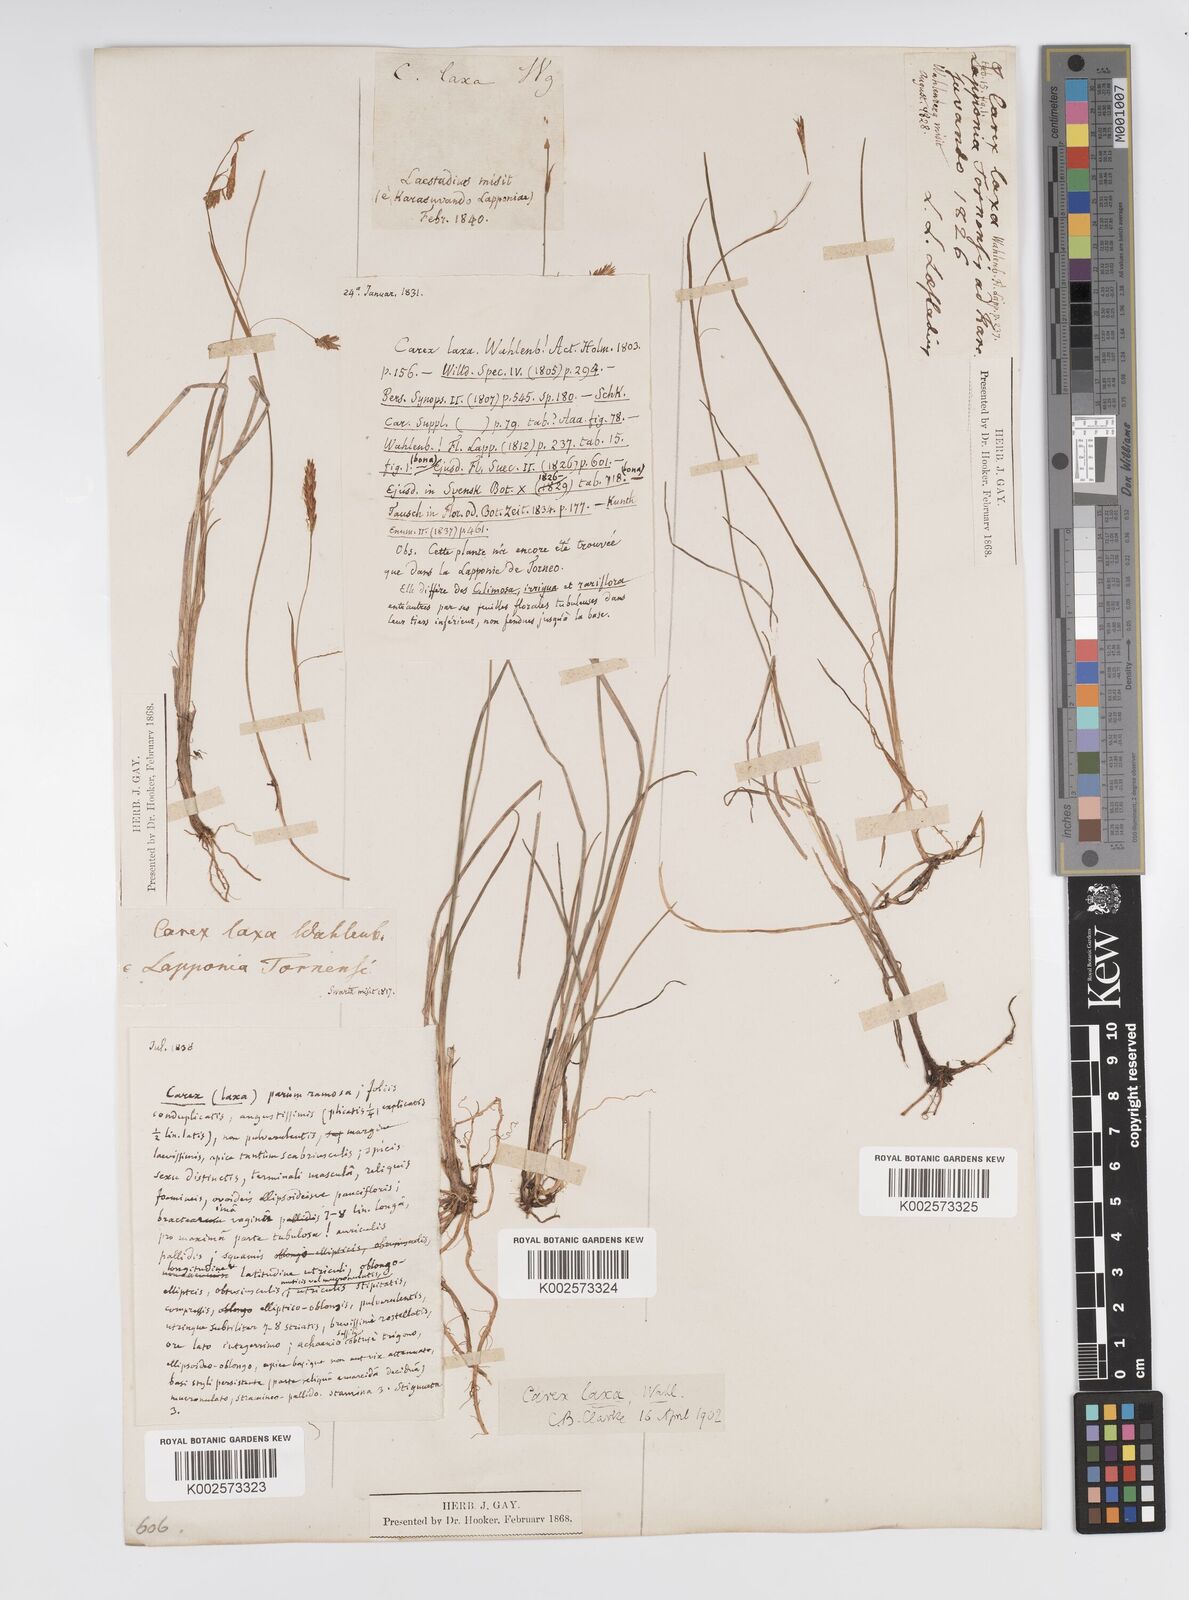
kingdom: Plantae
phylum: Tracheophyta
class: Liliopsida
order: Poales
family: Cyperaceae
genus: Carex
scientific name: Carex laxa
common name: Weak sedge
